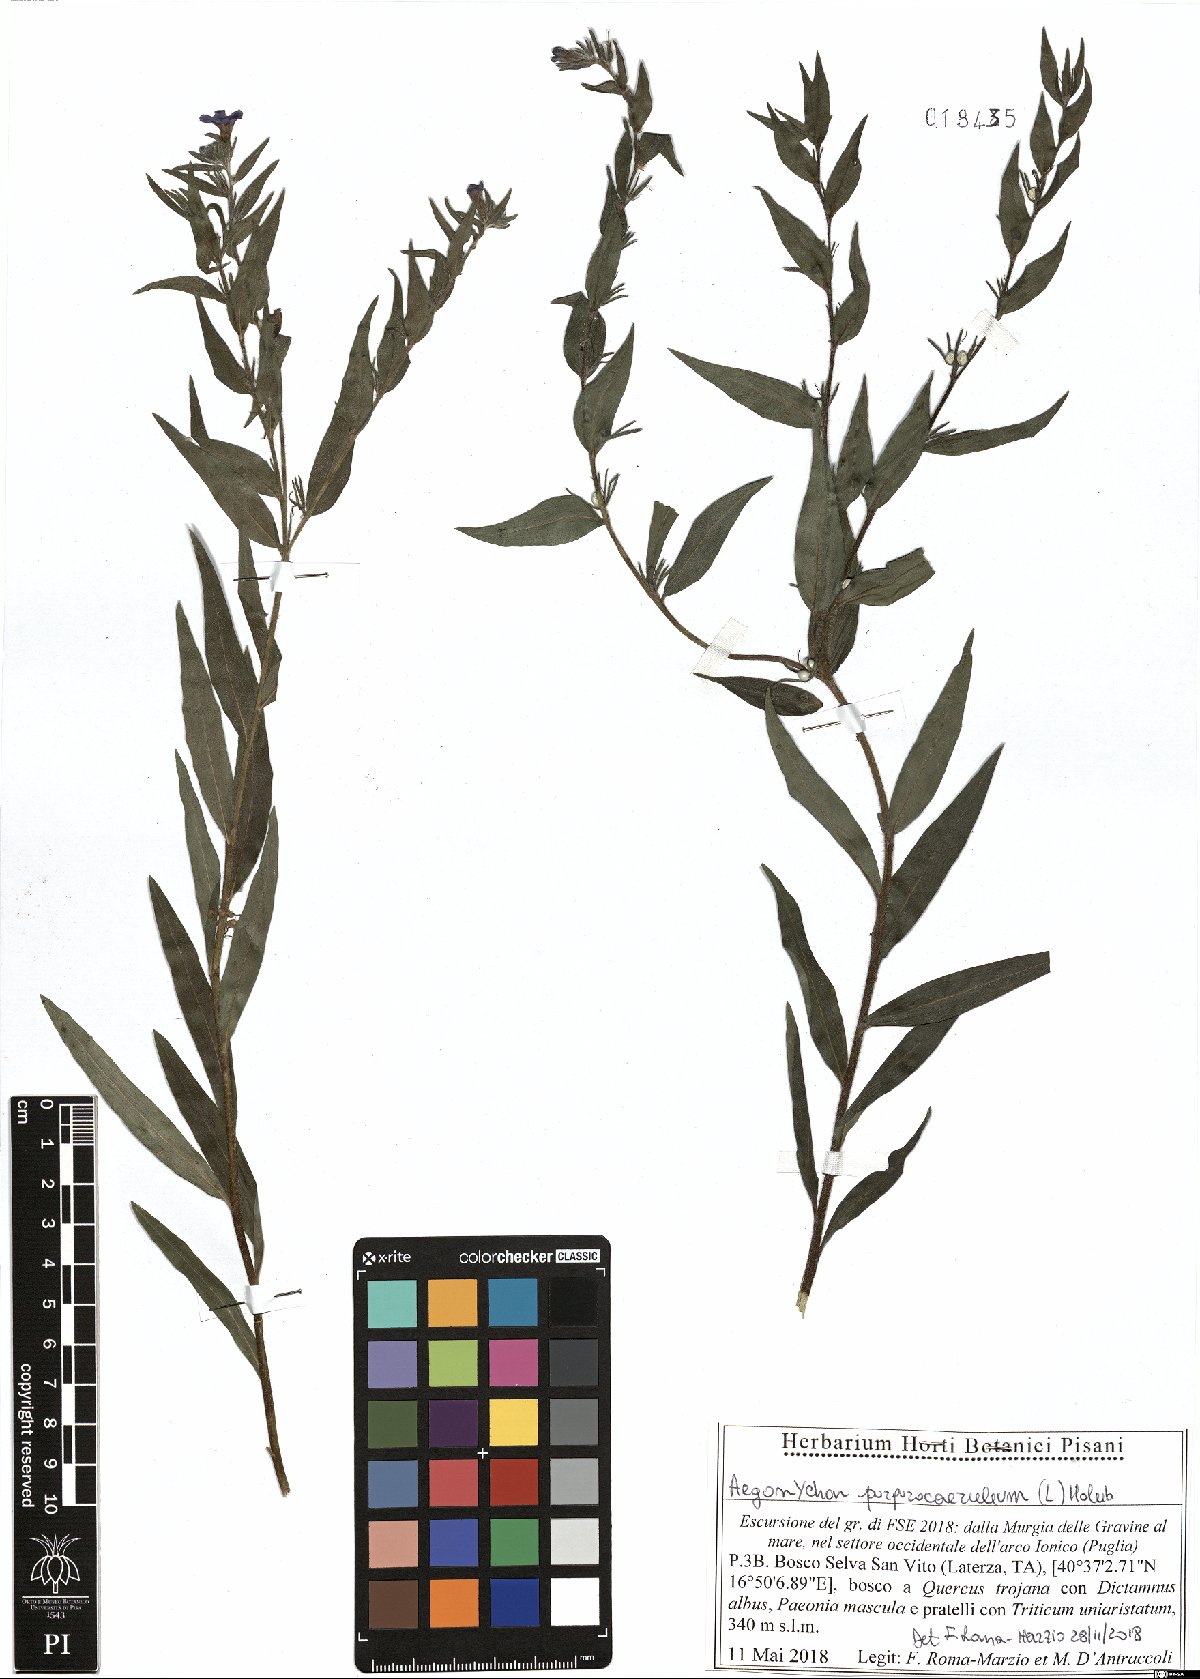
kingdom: Plantae
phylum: Tracheophyta
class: Magnoliopsida
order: Boraginales
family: Boraginaceae
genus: Aegonychon
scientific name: Aegonychon purpurocaeruleum
